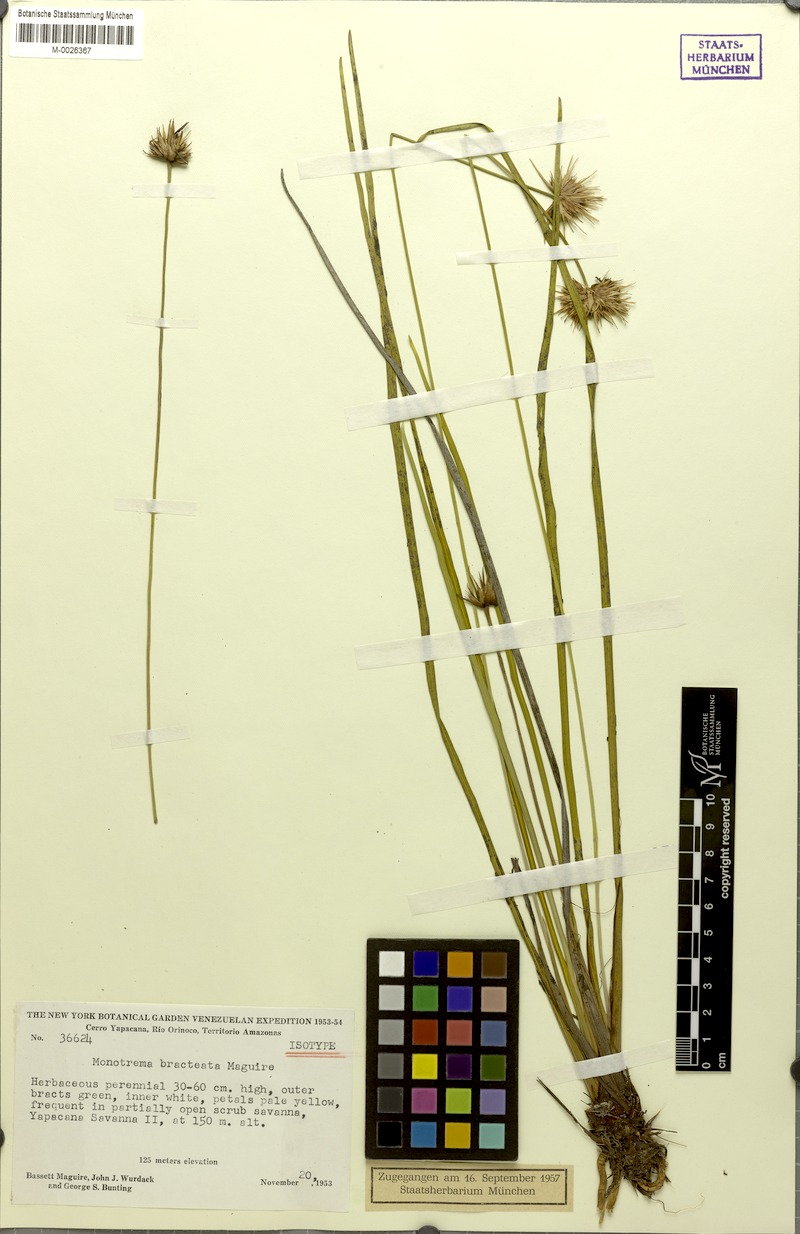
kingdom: Plantae
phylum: Tracheophyta
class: Liliopsida
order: Poales
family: Rapateaceae
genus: Monotrema
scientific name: Monotrema bracteatum
